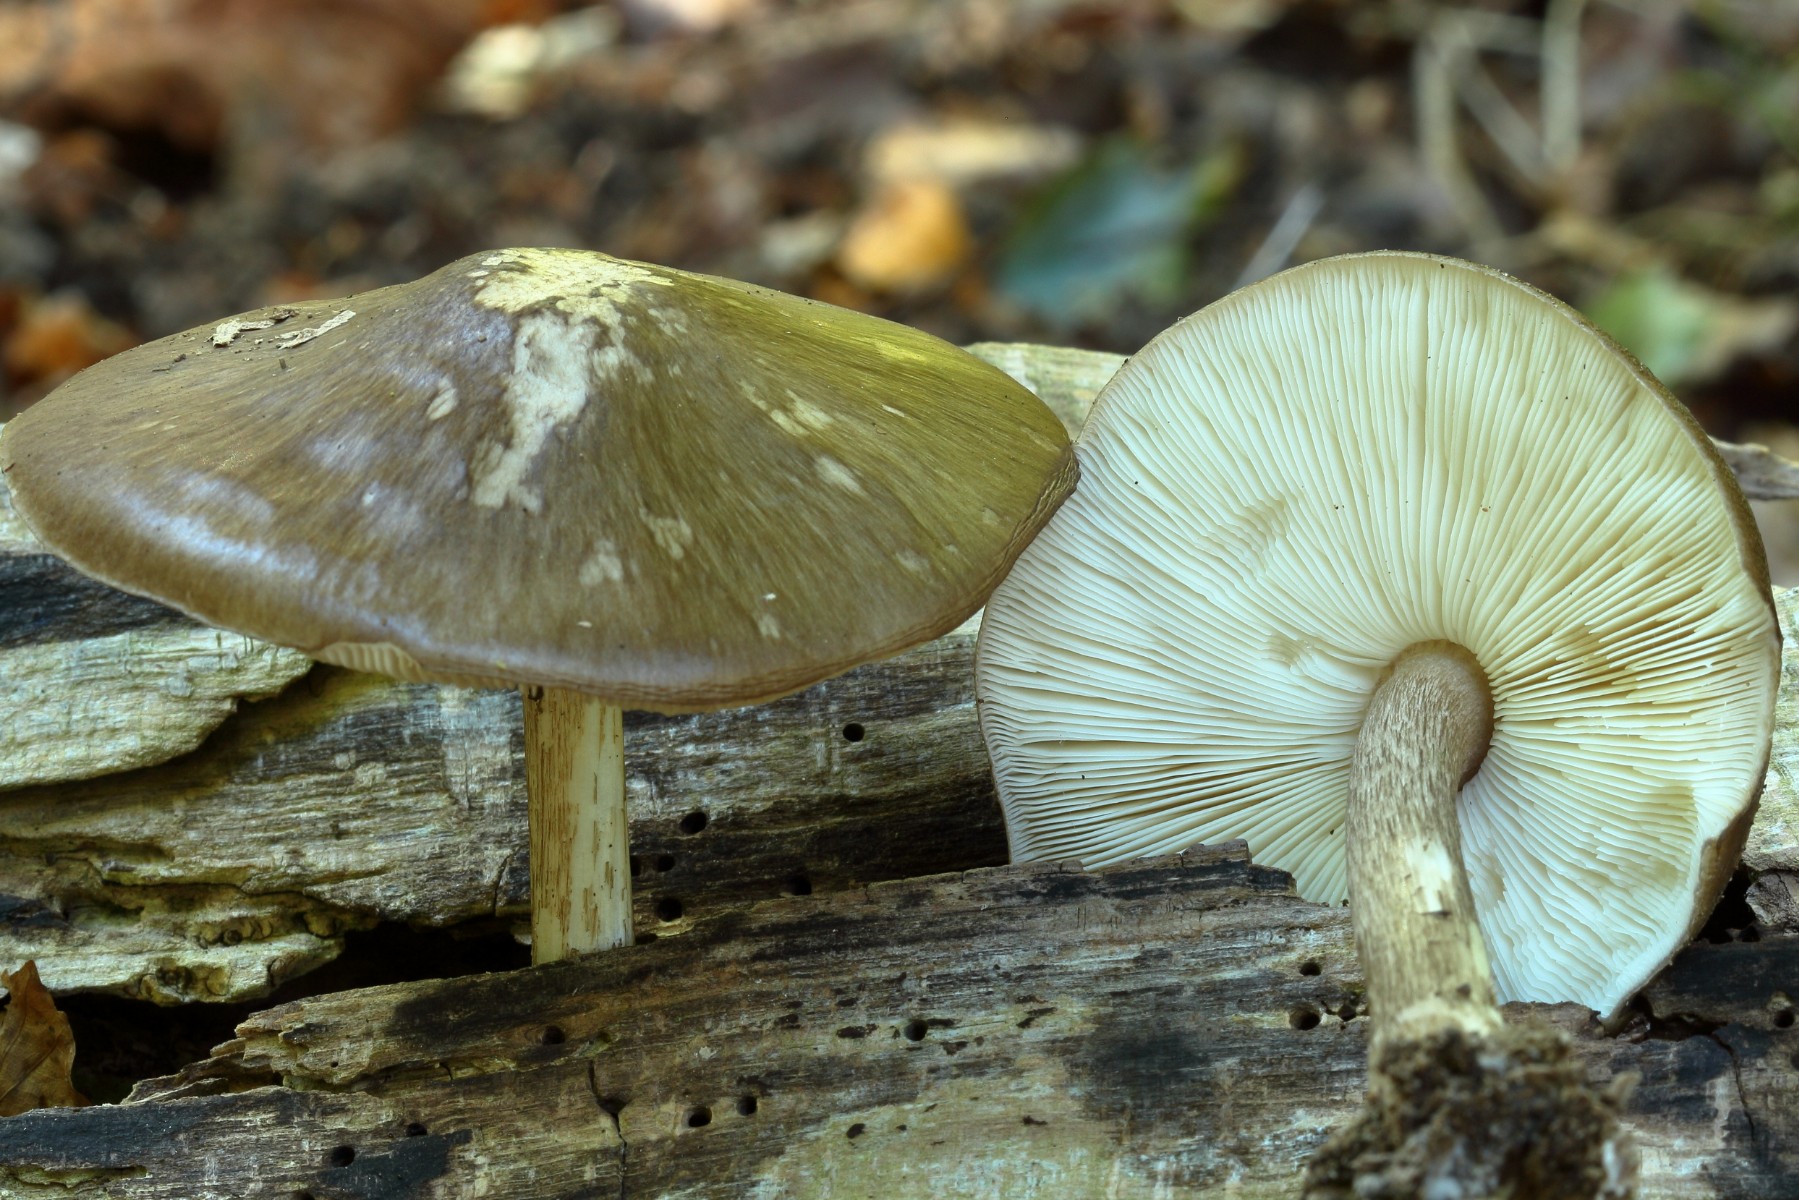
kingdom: Fungi
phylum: Basidiomycota
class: Agaricomycetes
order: Agaricales
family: Pluteaceae
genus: Pluteus
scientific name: Pluteus cervinus
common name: sodfarvet skærmhat
